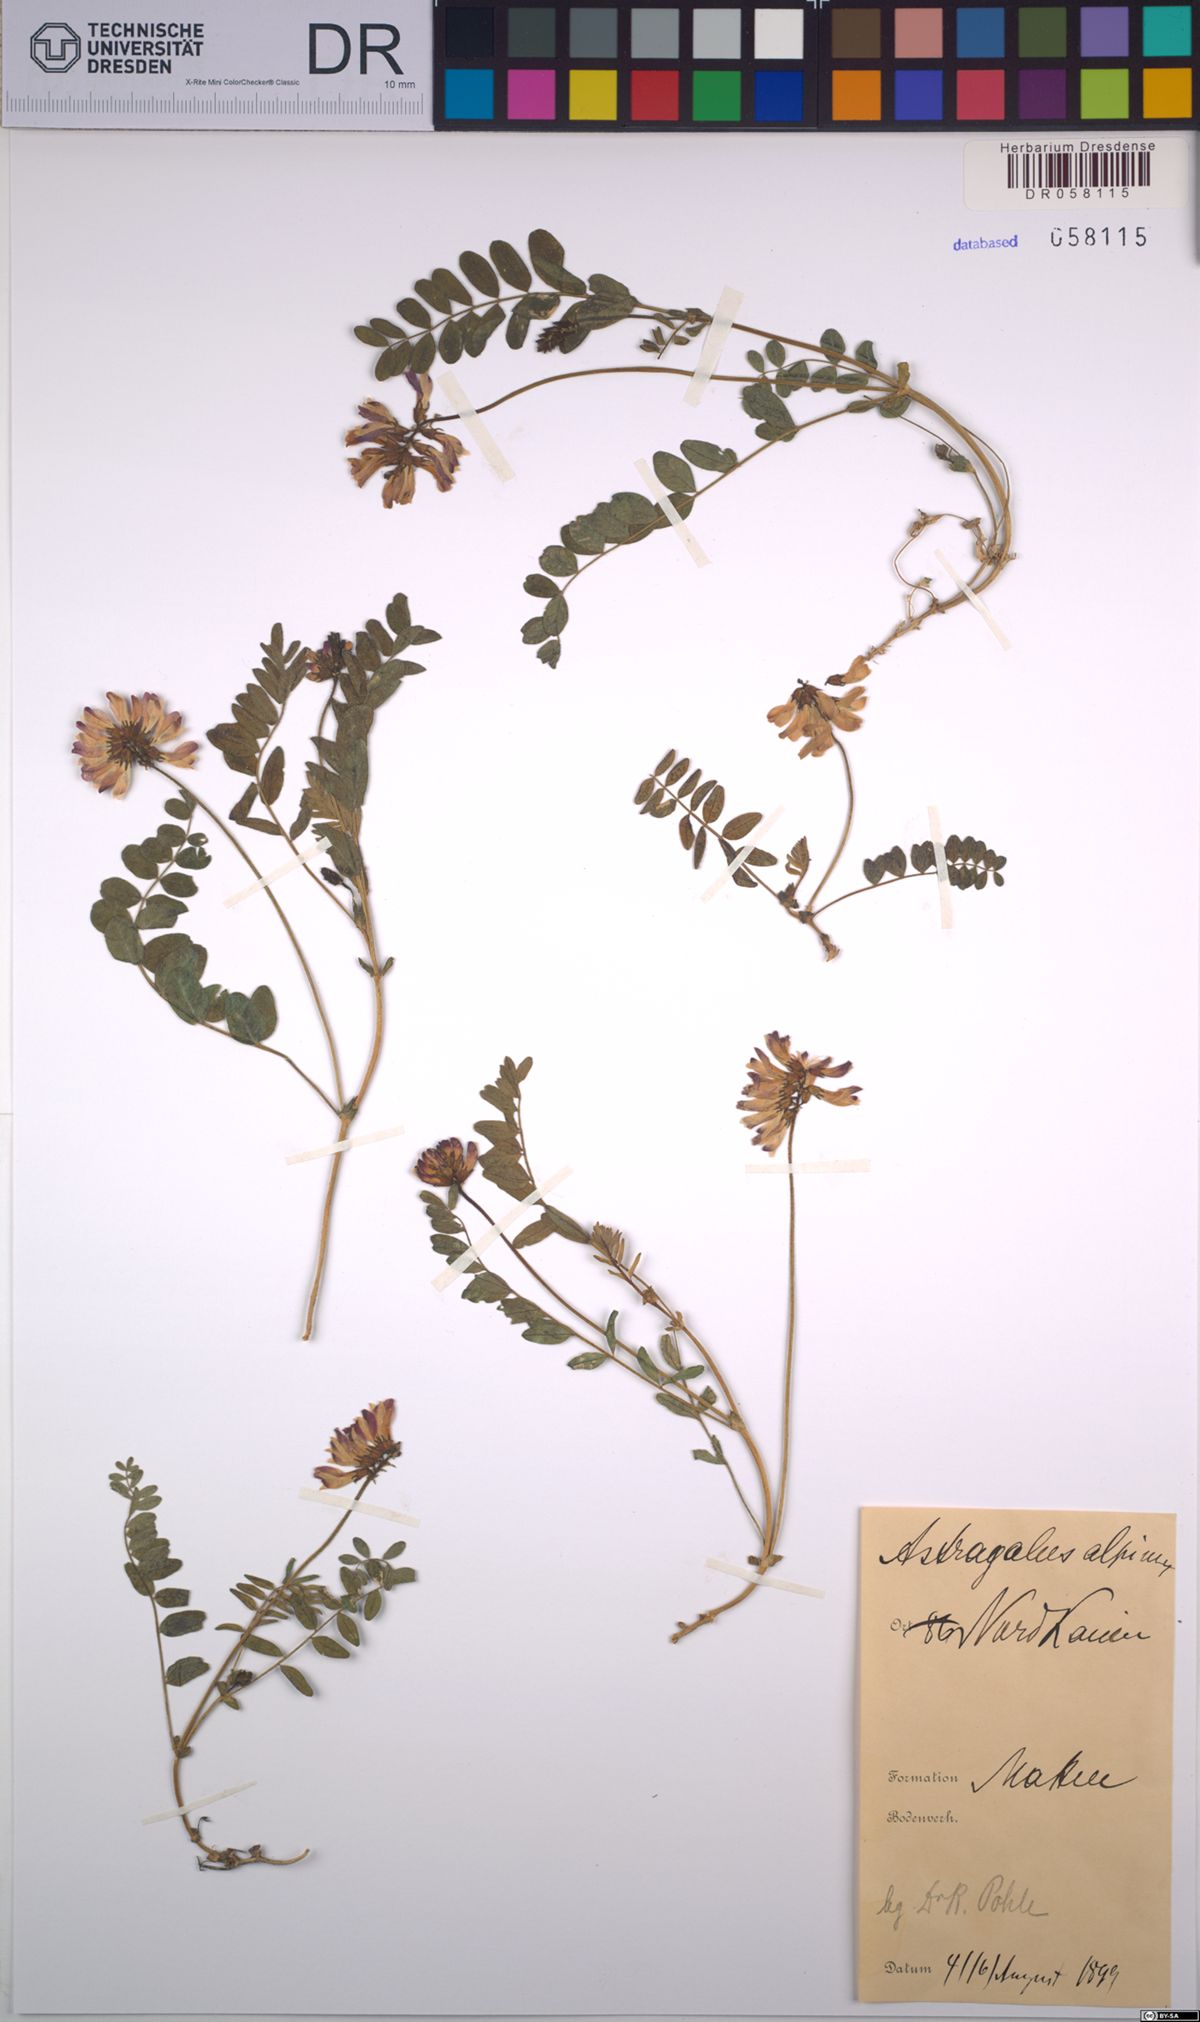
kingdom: Plantae
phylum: Tracheophyta
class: Magnoliopsida
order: Fabales
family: Fabaceae
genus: Astragalus
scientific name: Astragalus alpinus
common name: Alpine milk-vetch
